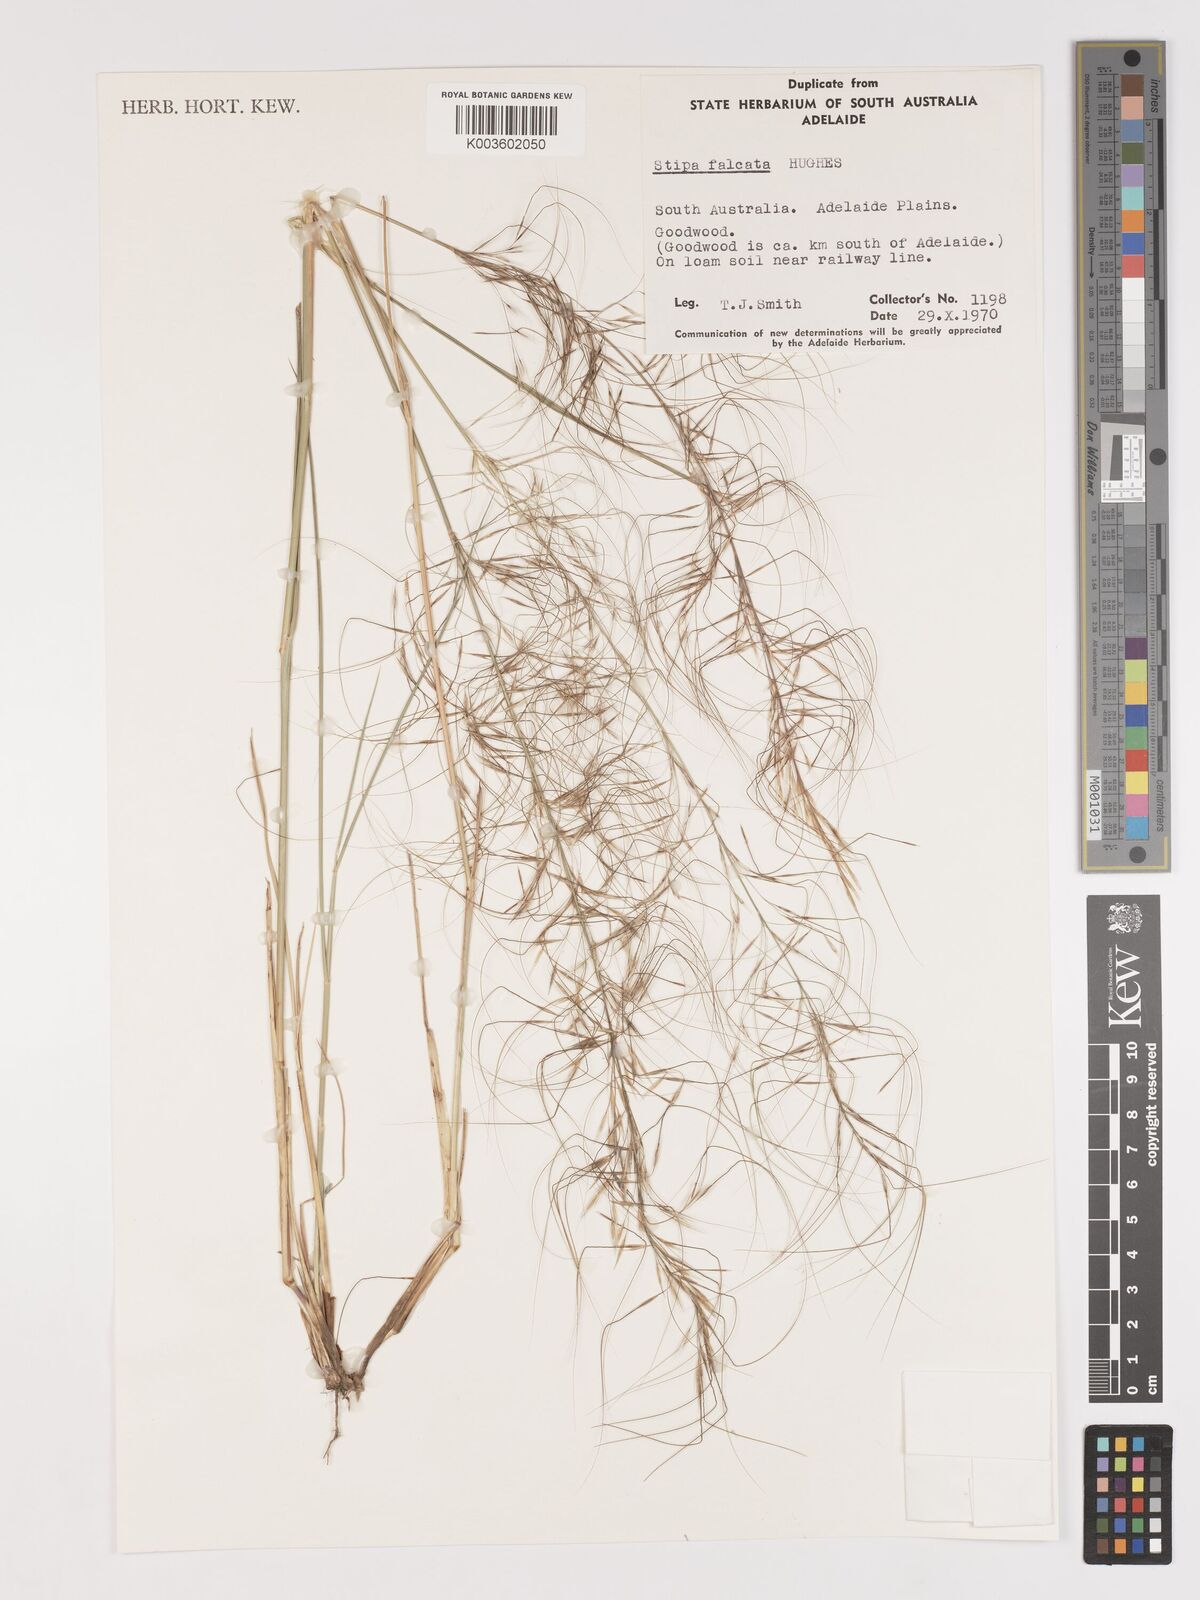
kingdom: Plantae
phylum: Tracheophyta
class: Liliopsida
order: Poales
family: Poaceae
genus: Austrostipa
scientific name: Austrostipa scabra
